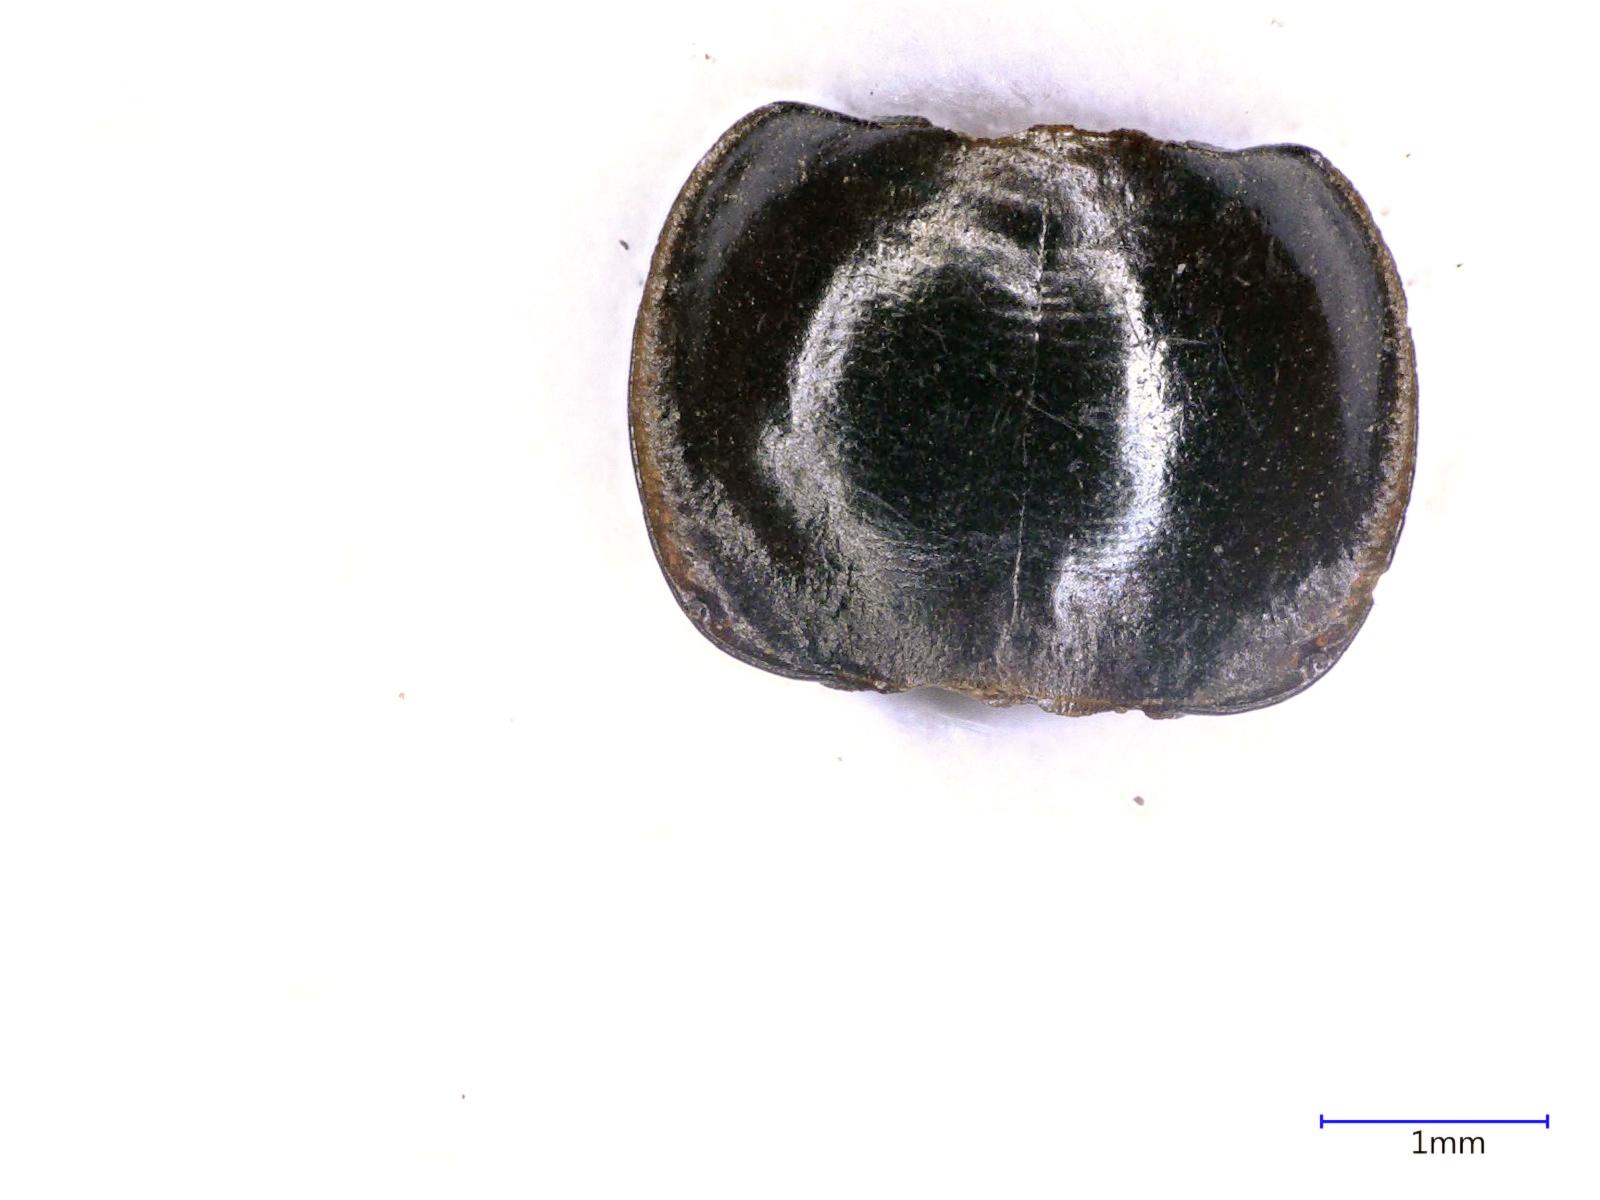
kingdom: Animalia
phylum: Arthropoda
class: Insecta
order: Coleoptera
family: Carabidae
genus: Tanystoma
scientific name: Tanystoma maculicolle
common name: Tule beetle
